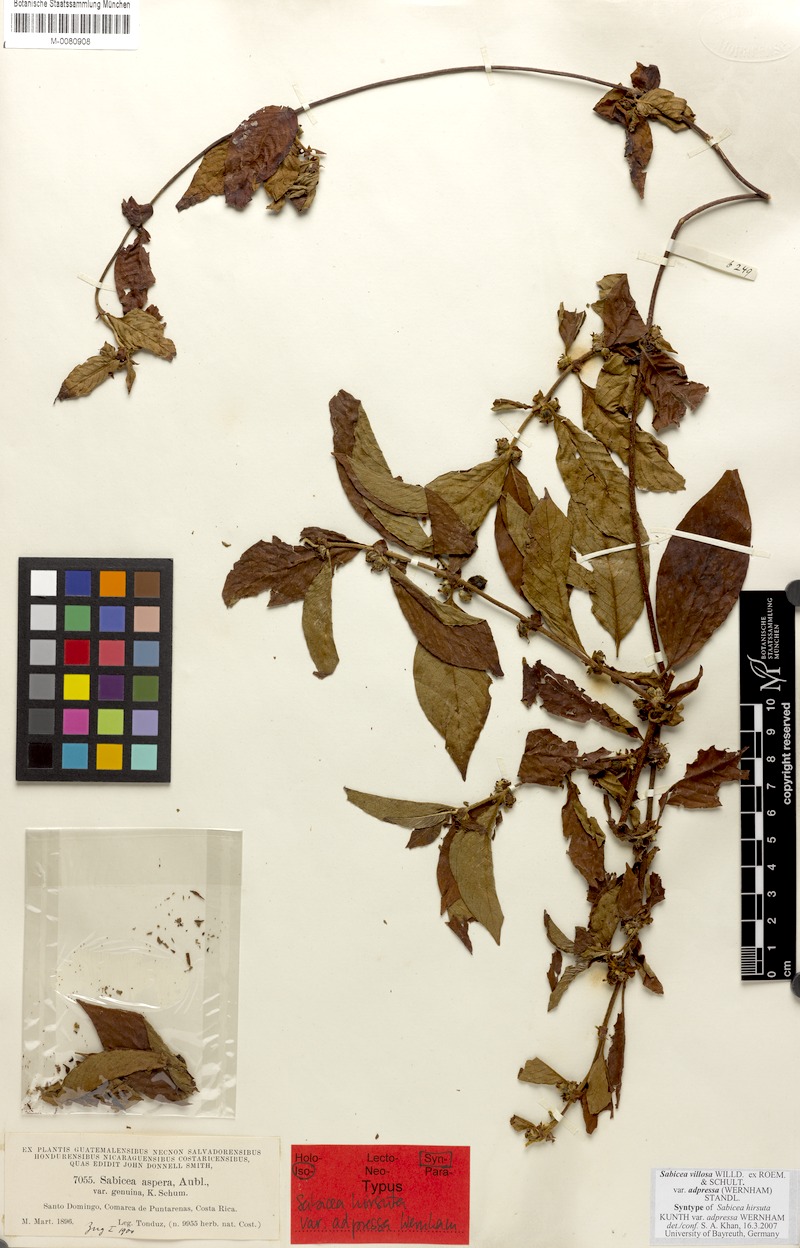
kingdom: Plantae
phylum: Tracheophyta
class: Magnoliopsida
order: Gentianales
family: Rubiaceae
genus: Sabicea
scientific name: Sabicea villosa
